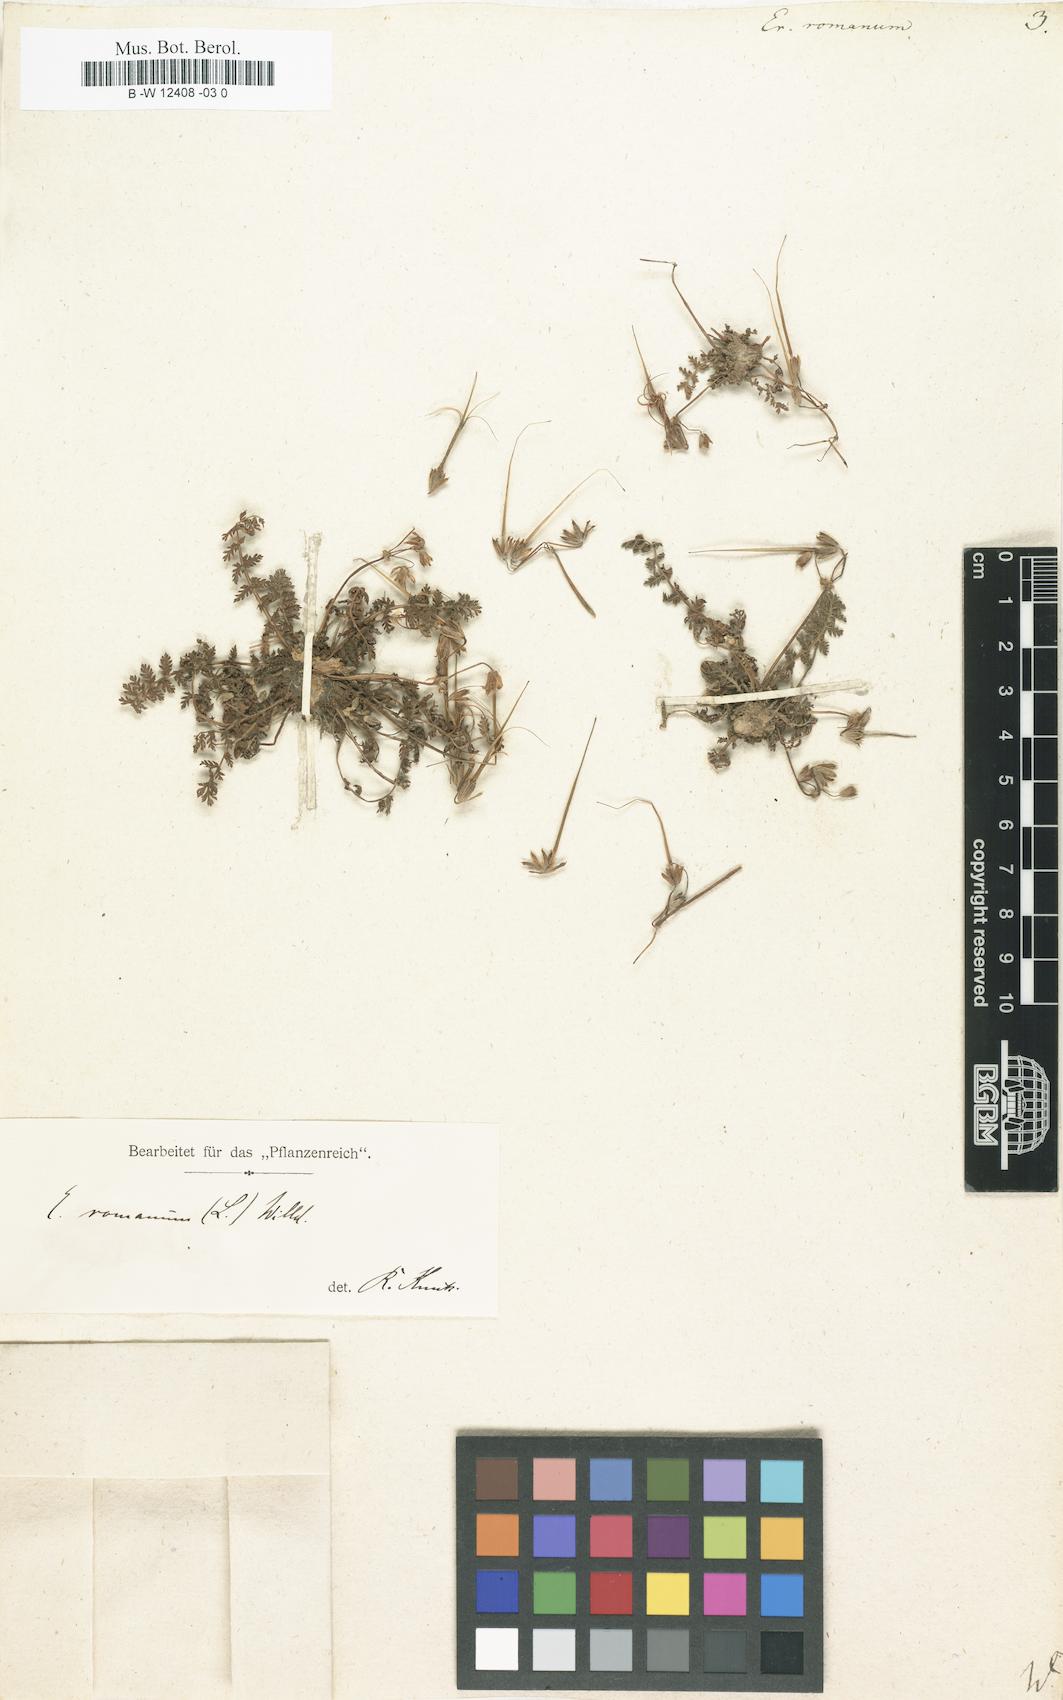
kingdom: Plantae
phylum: Tracheophyta
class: Magnoliopsida
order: Geraniales
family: Geraniaceae
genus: Erodium
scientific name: Erodium romanum
